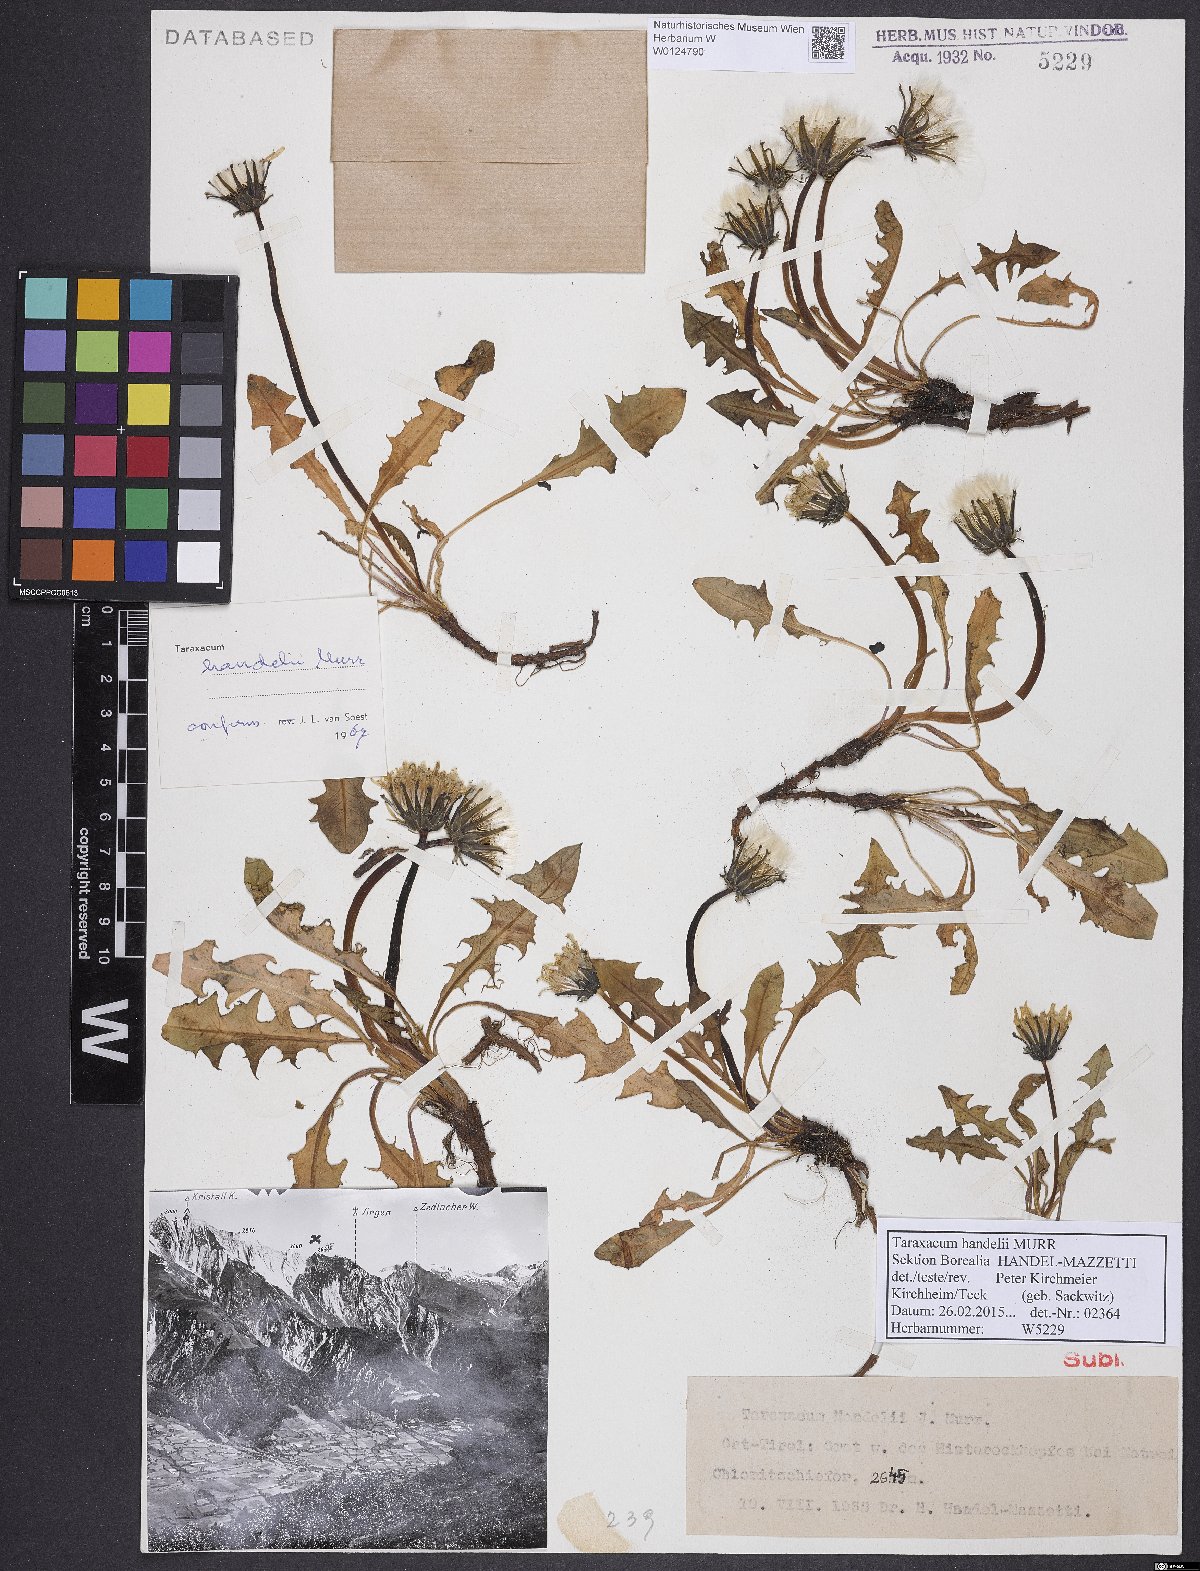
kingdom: Plantae
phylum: Tracheophyta
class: Magnoliopsida
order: Asterales
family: Asteraceae
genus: Taraxacum
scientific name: Taraxacum handelii
